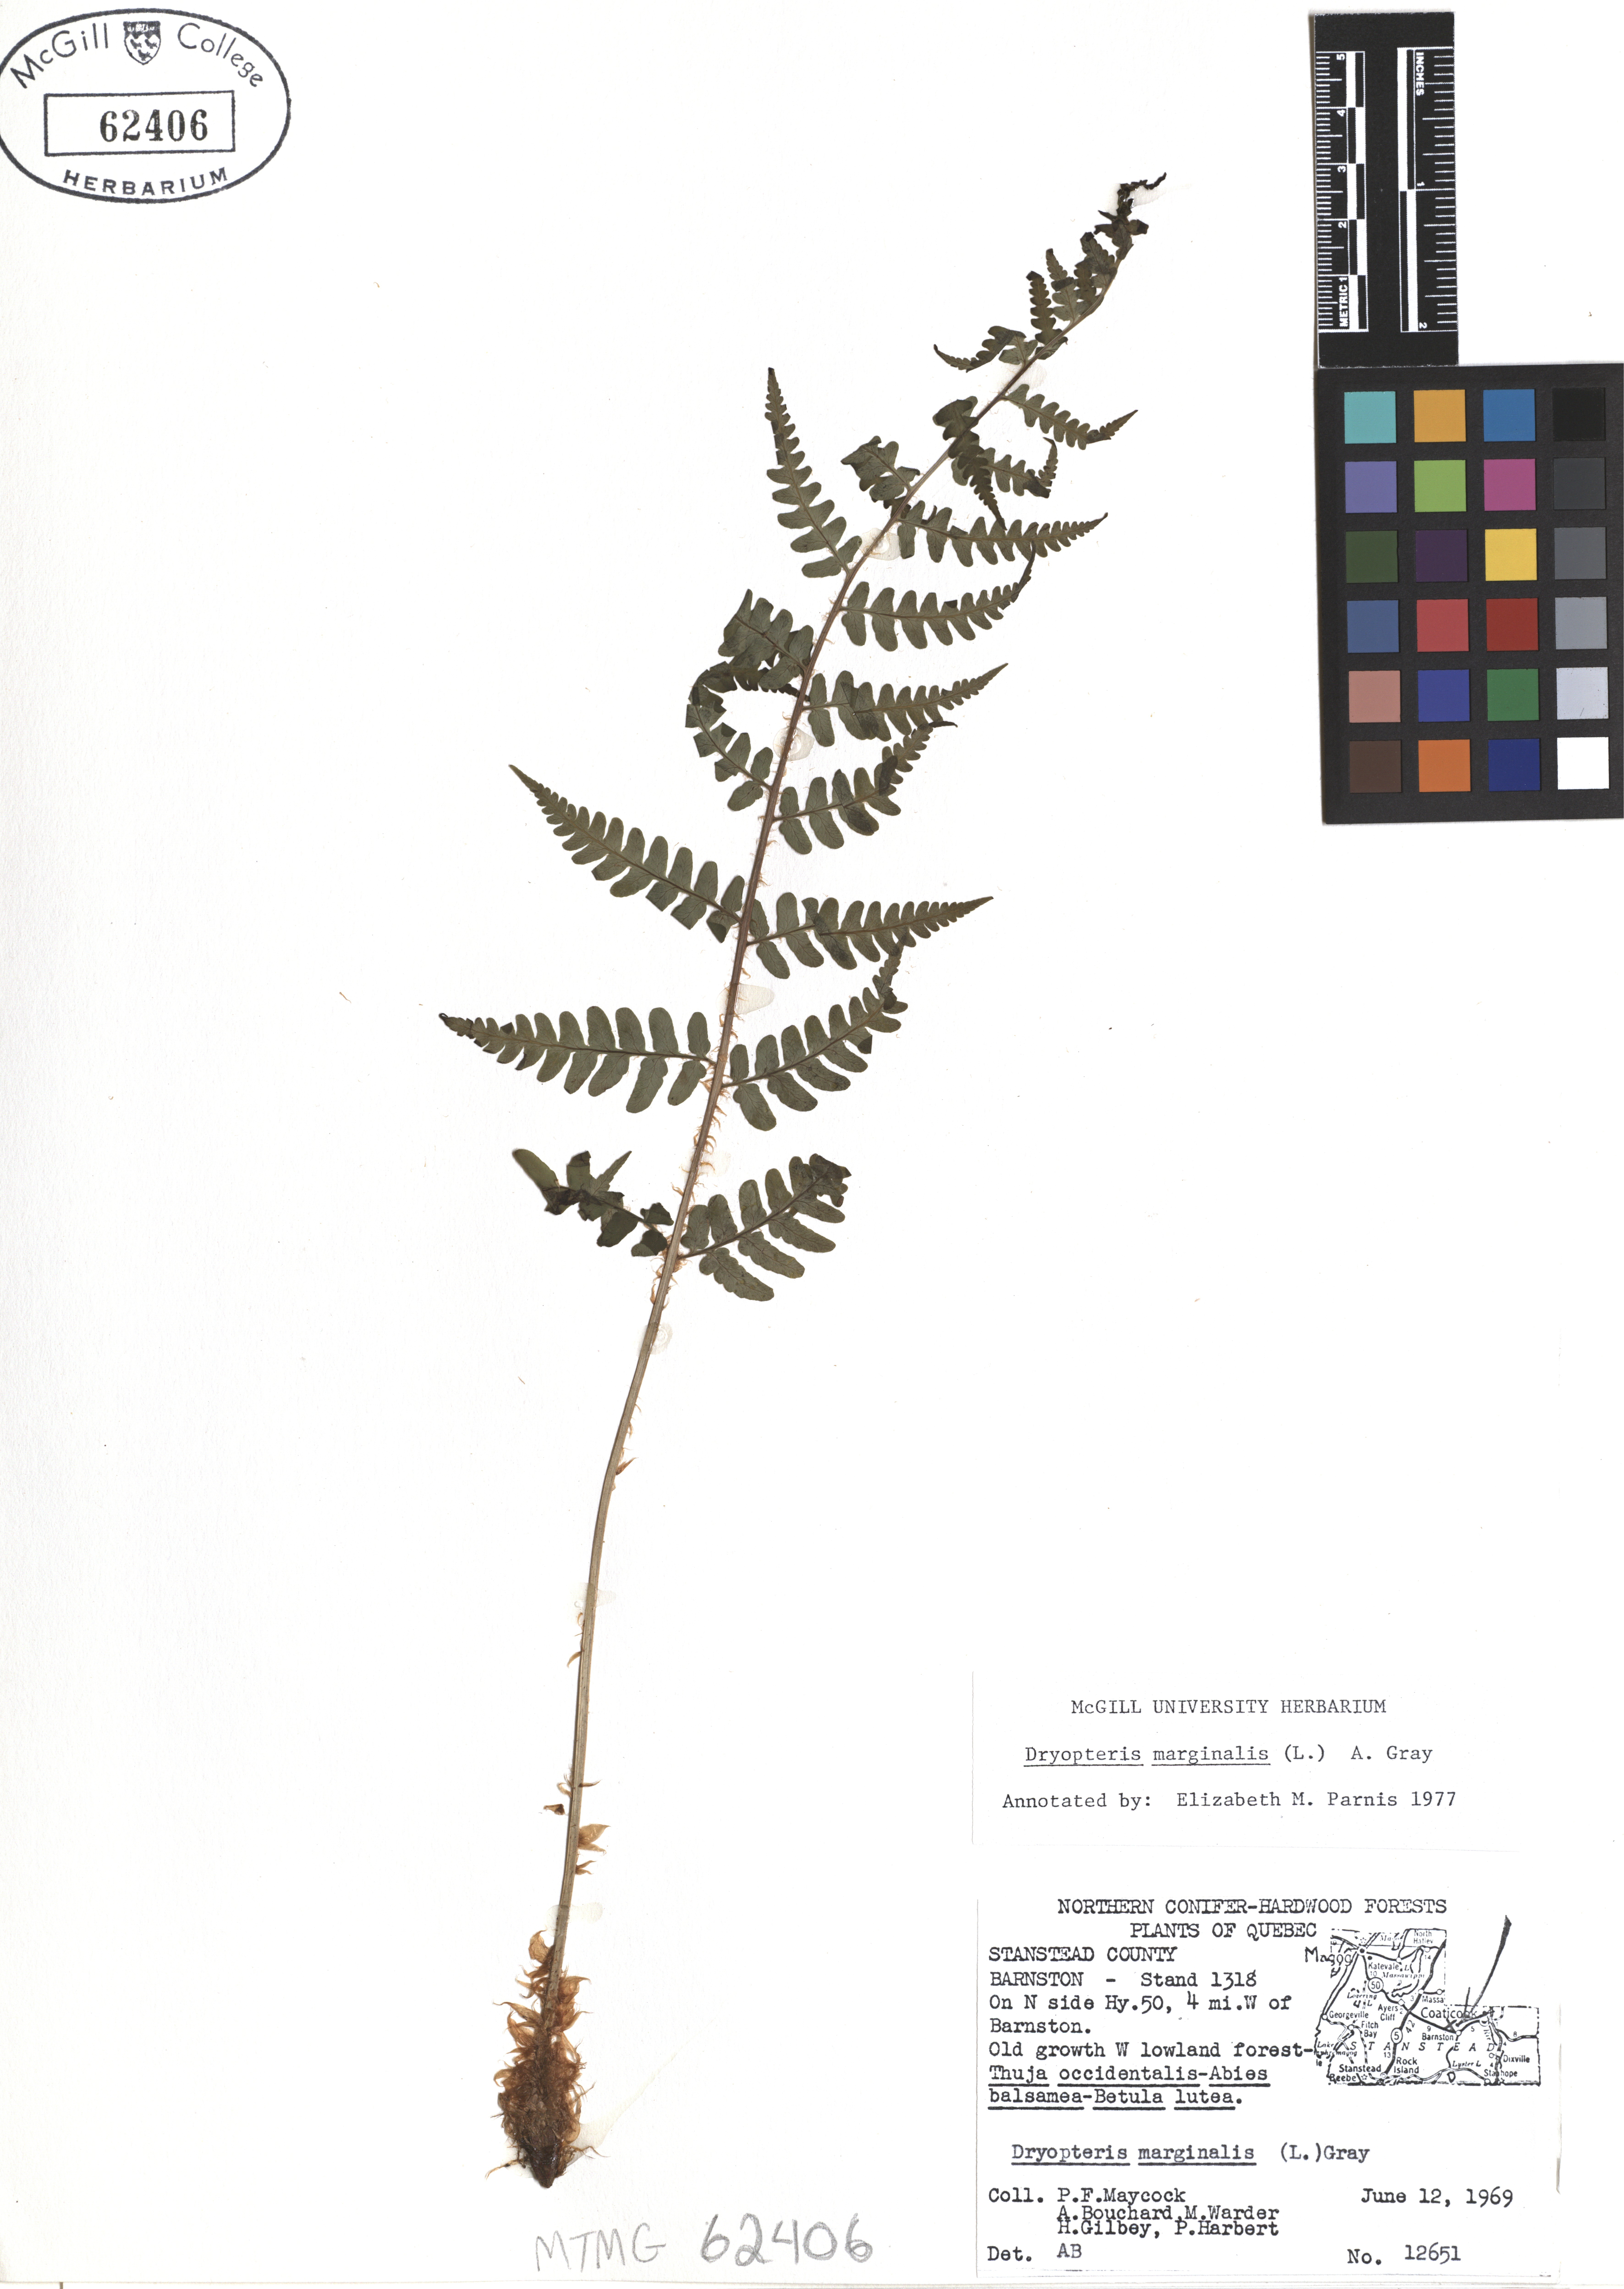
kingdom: Plantae
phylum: Tracheophyta
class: Polypodiopsida
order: Polypodiales
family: Dryopteridaceae
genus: Dryopteris
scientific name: Dryopteris marginalis
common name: Marginal wood fern
